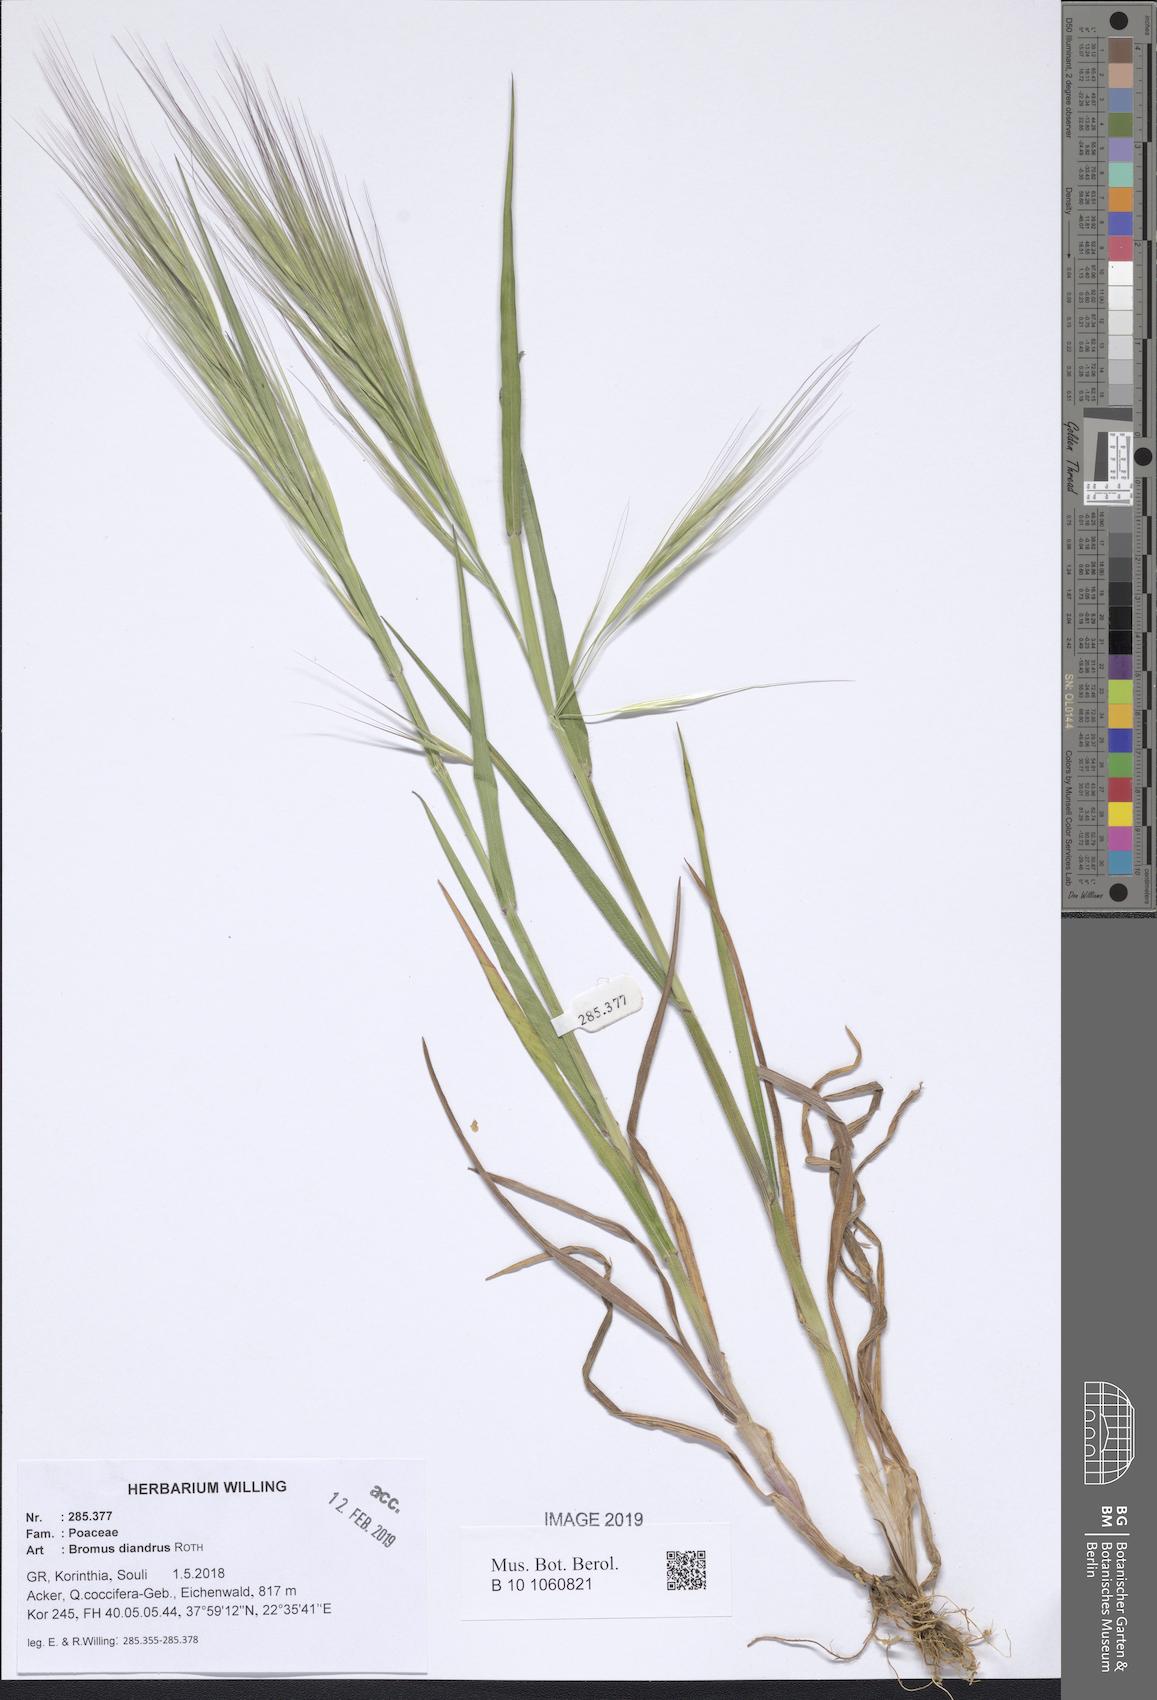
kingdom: Plantae
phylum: Tracheophyta
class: Liliopsida
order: Poales
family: Poaceae
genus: Bromus
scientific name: Bromus diandrus
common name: Ripgut brome
